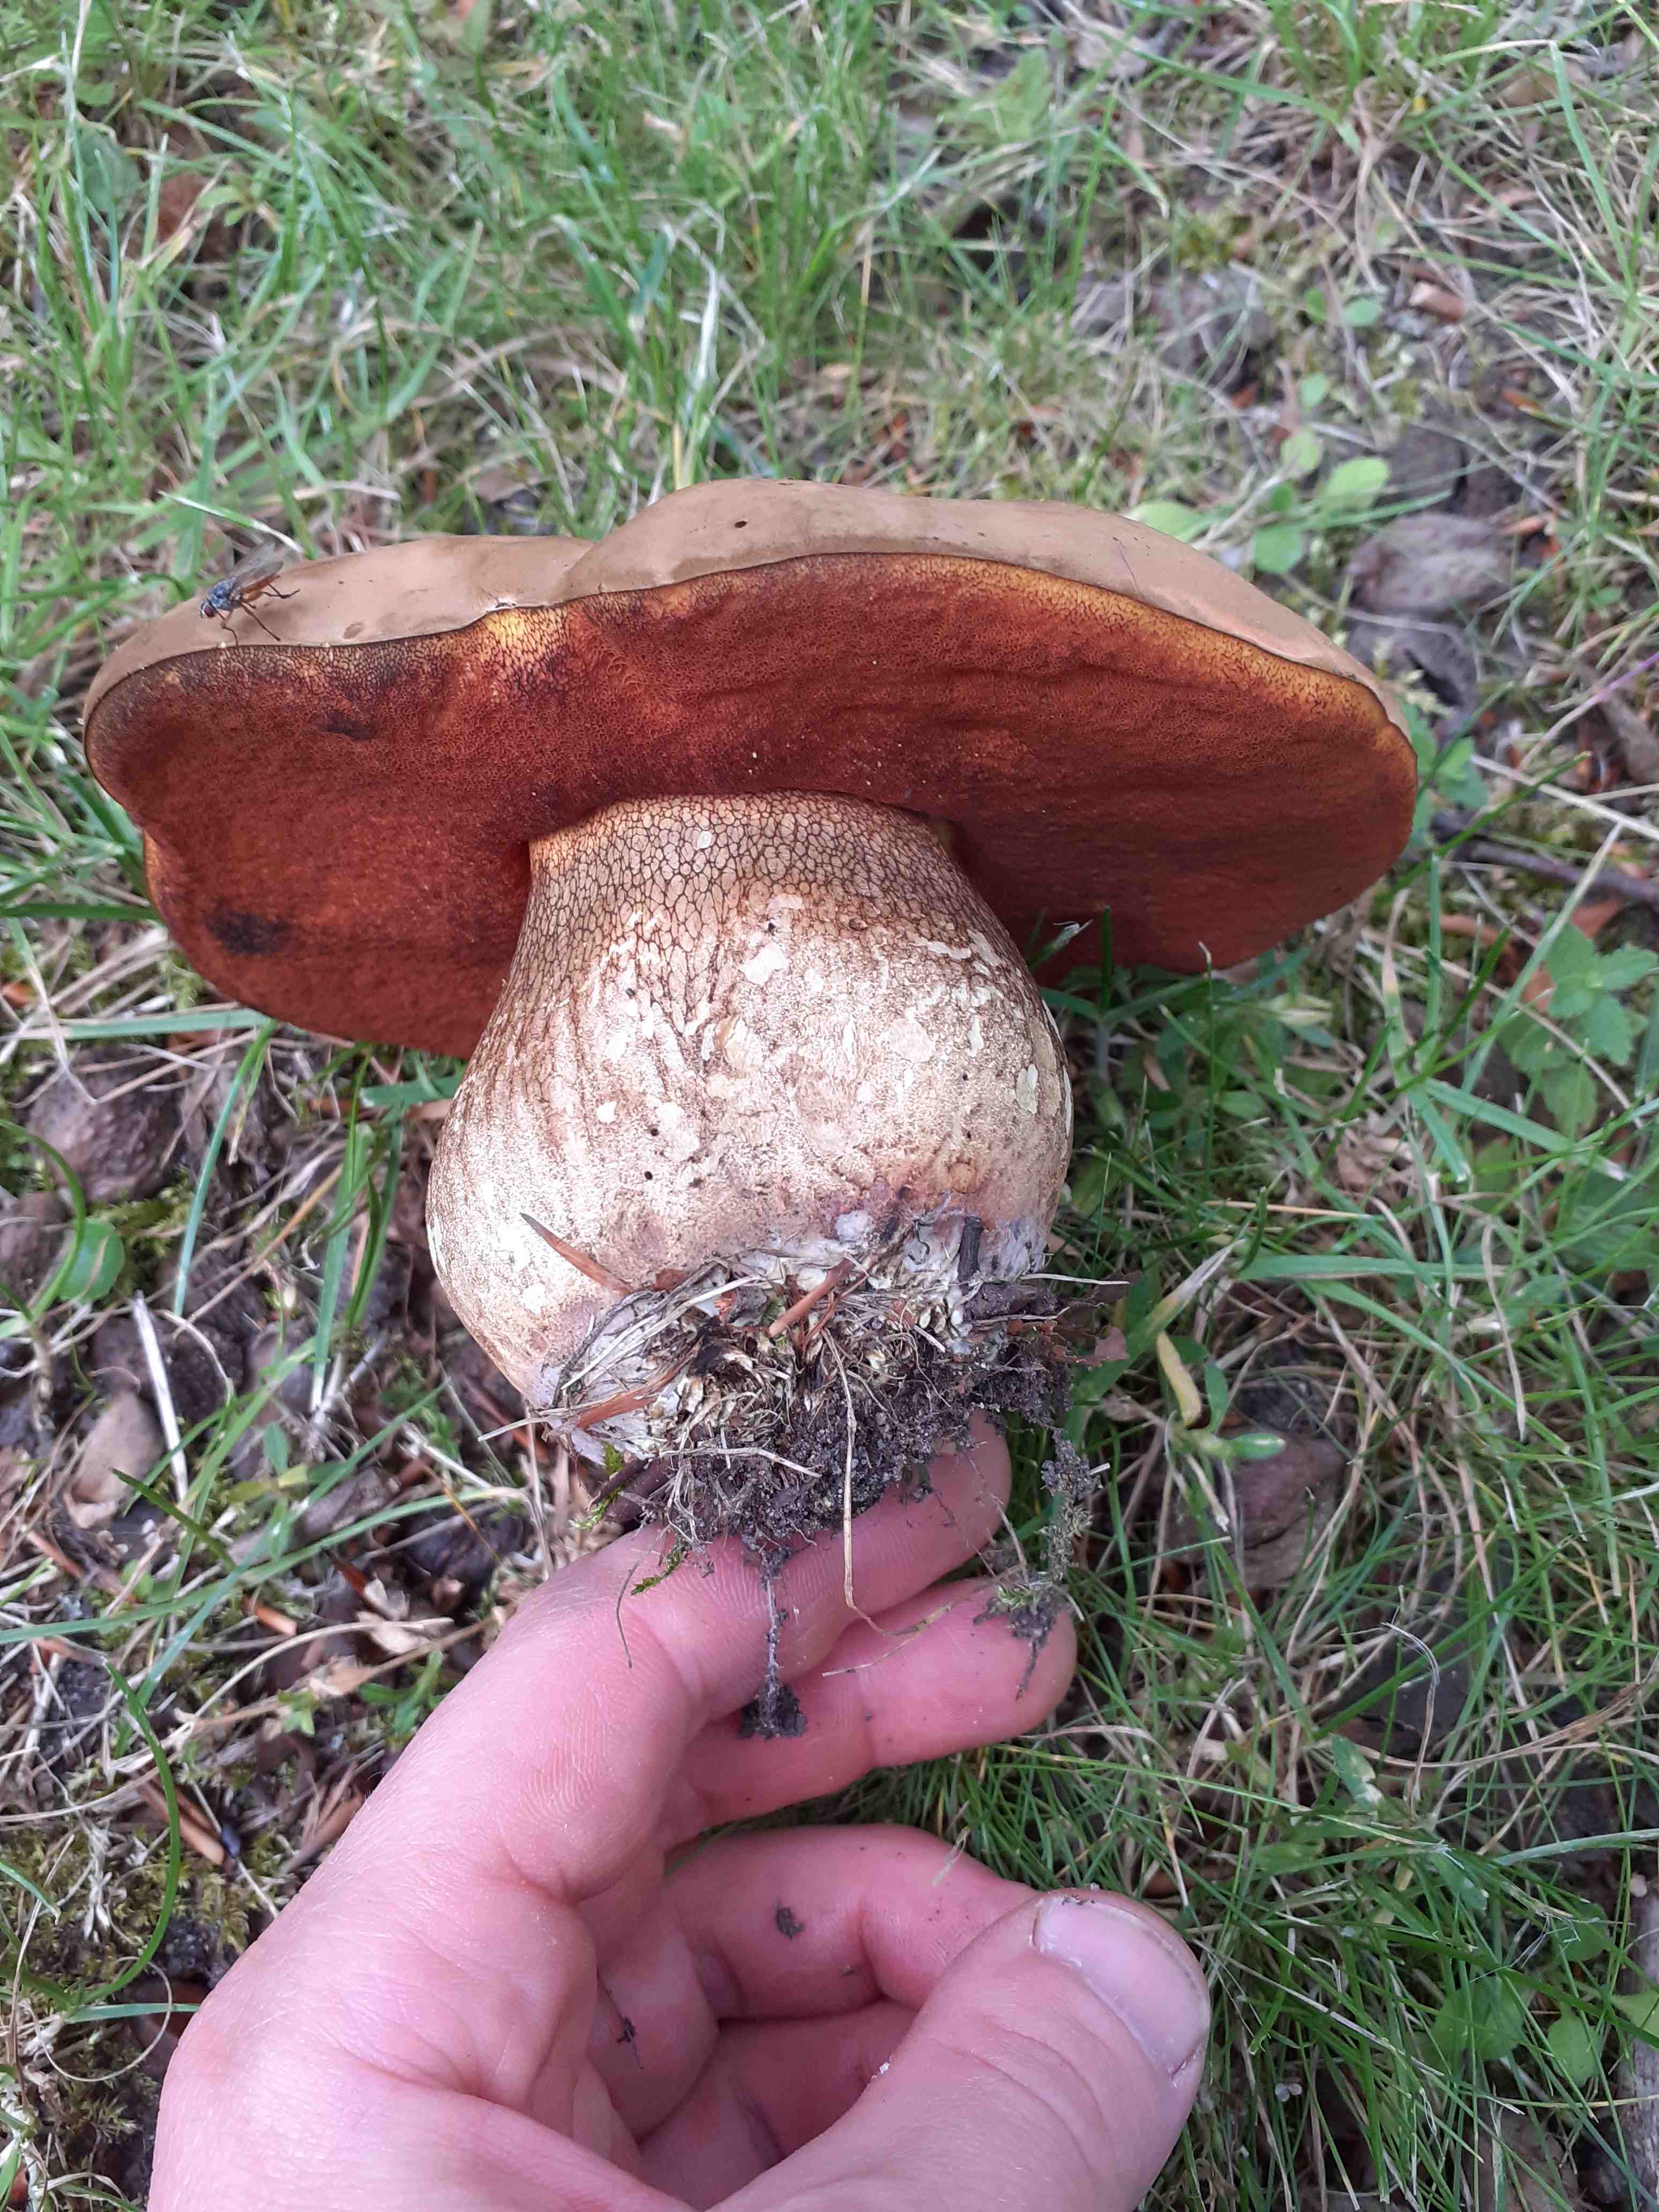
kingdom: Fungi
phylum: Basidiomycota
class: Agaricomycetes
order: Boletales
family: Boletaceae
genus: Suillellus
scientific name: Suillellus luridus
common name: netstokket indigorørhat
